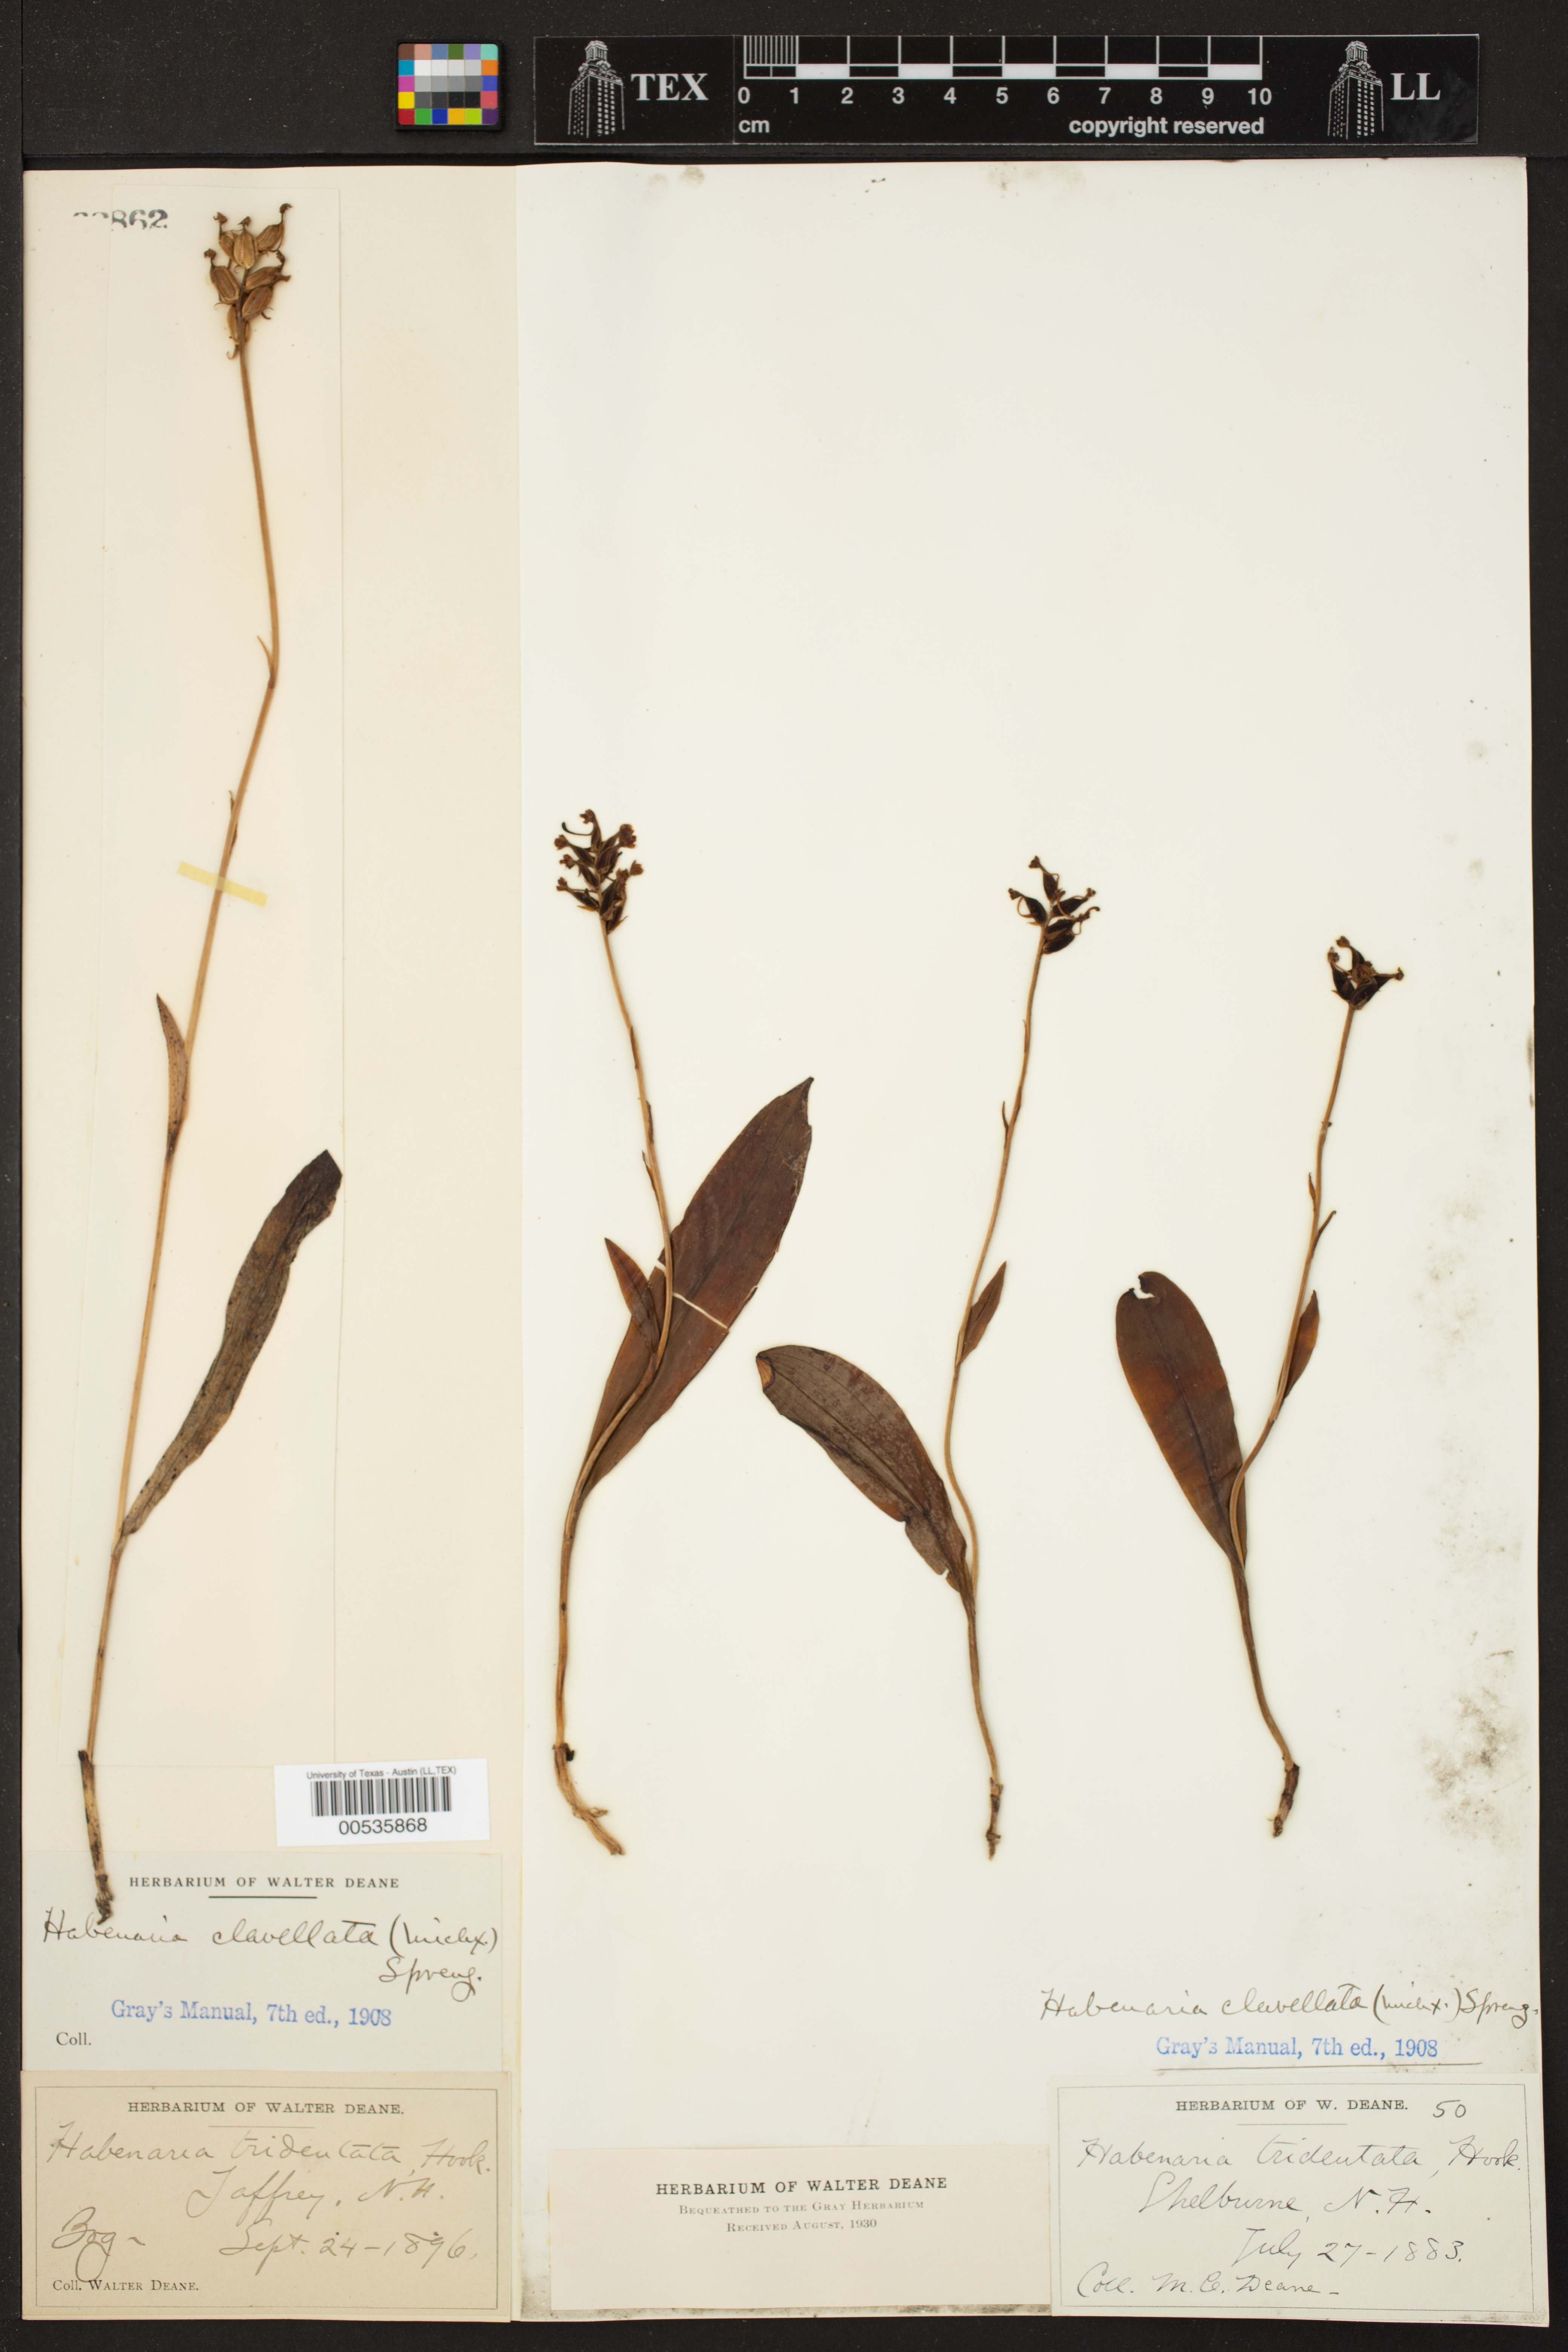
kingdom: Plantae
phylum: Tracheophyta
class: Liliopsida
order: Asparagales
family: Orchidaceae
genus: Platanthera
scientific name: Platanthera clavellata
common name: Club-spur orchid
